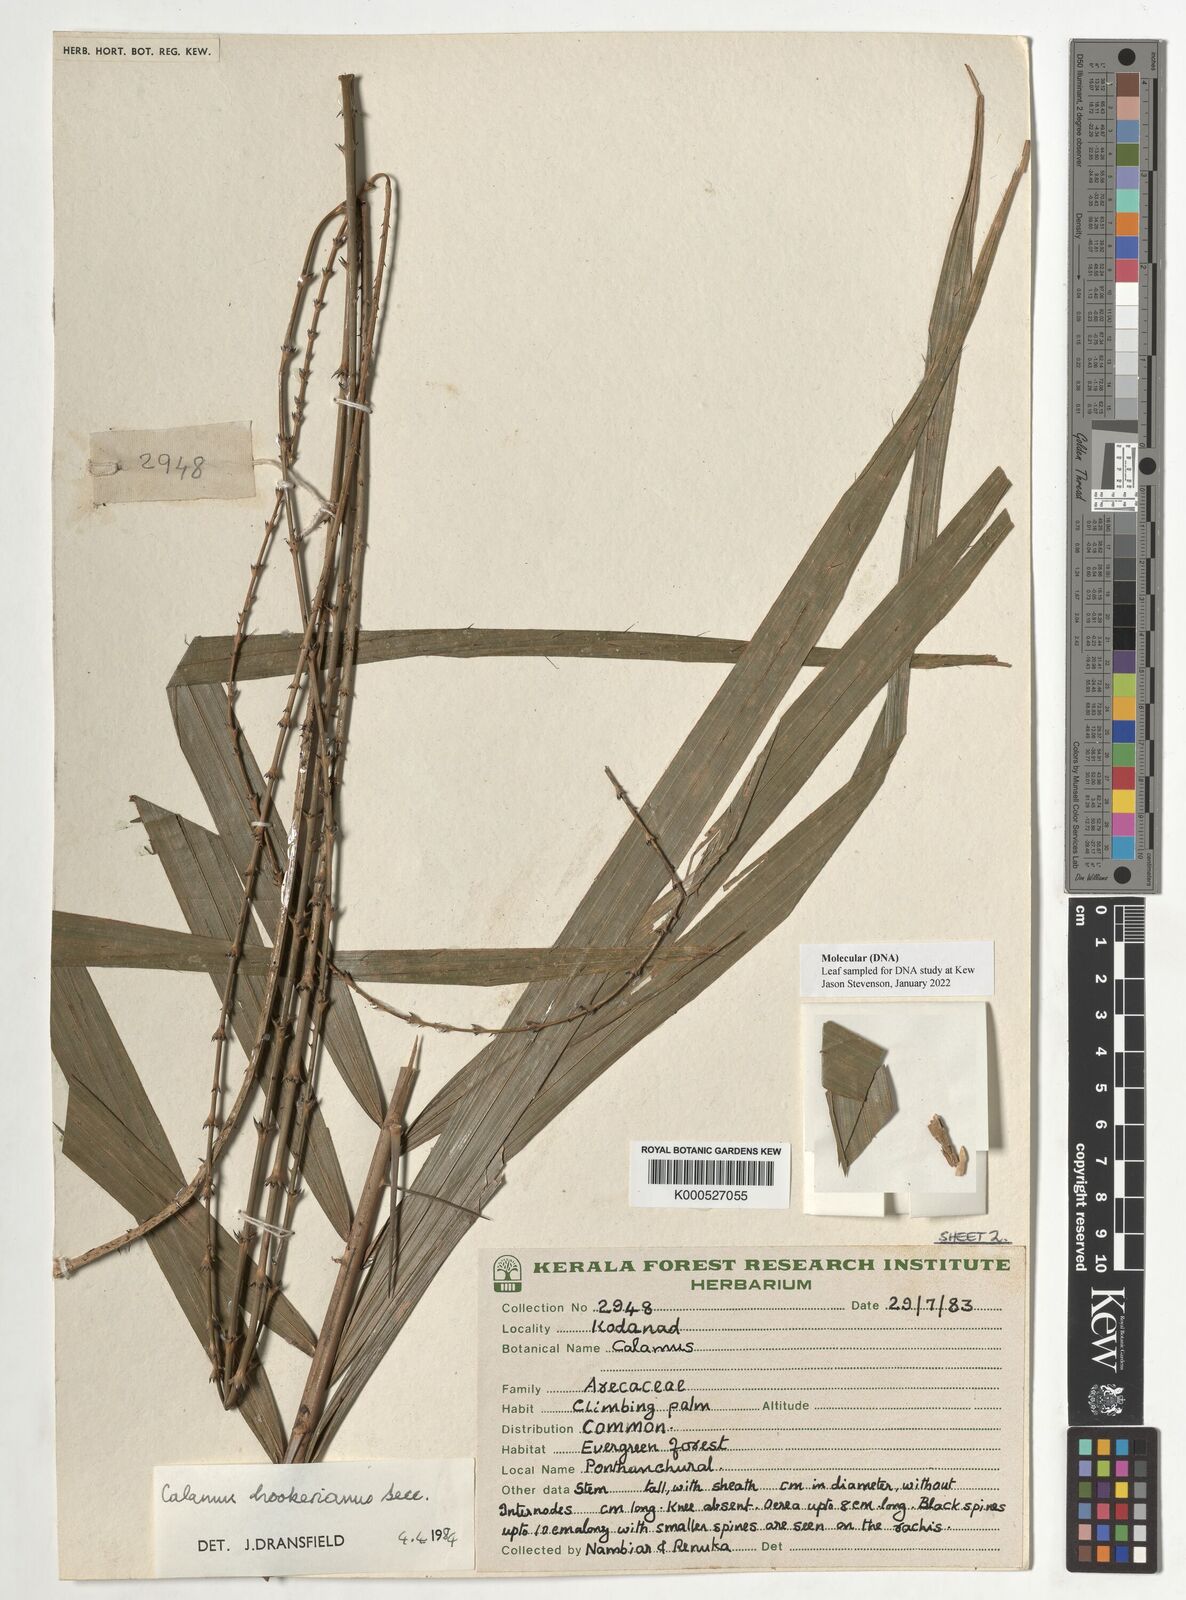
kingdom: Plantae
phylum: Tracheophyta
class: Liliopsida
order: Arecales
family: Arecaceae
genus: Calamus
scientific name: Calamus hookerianus
